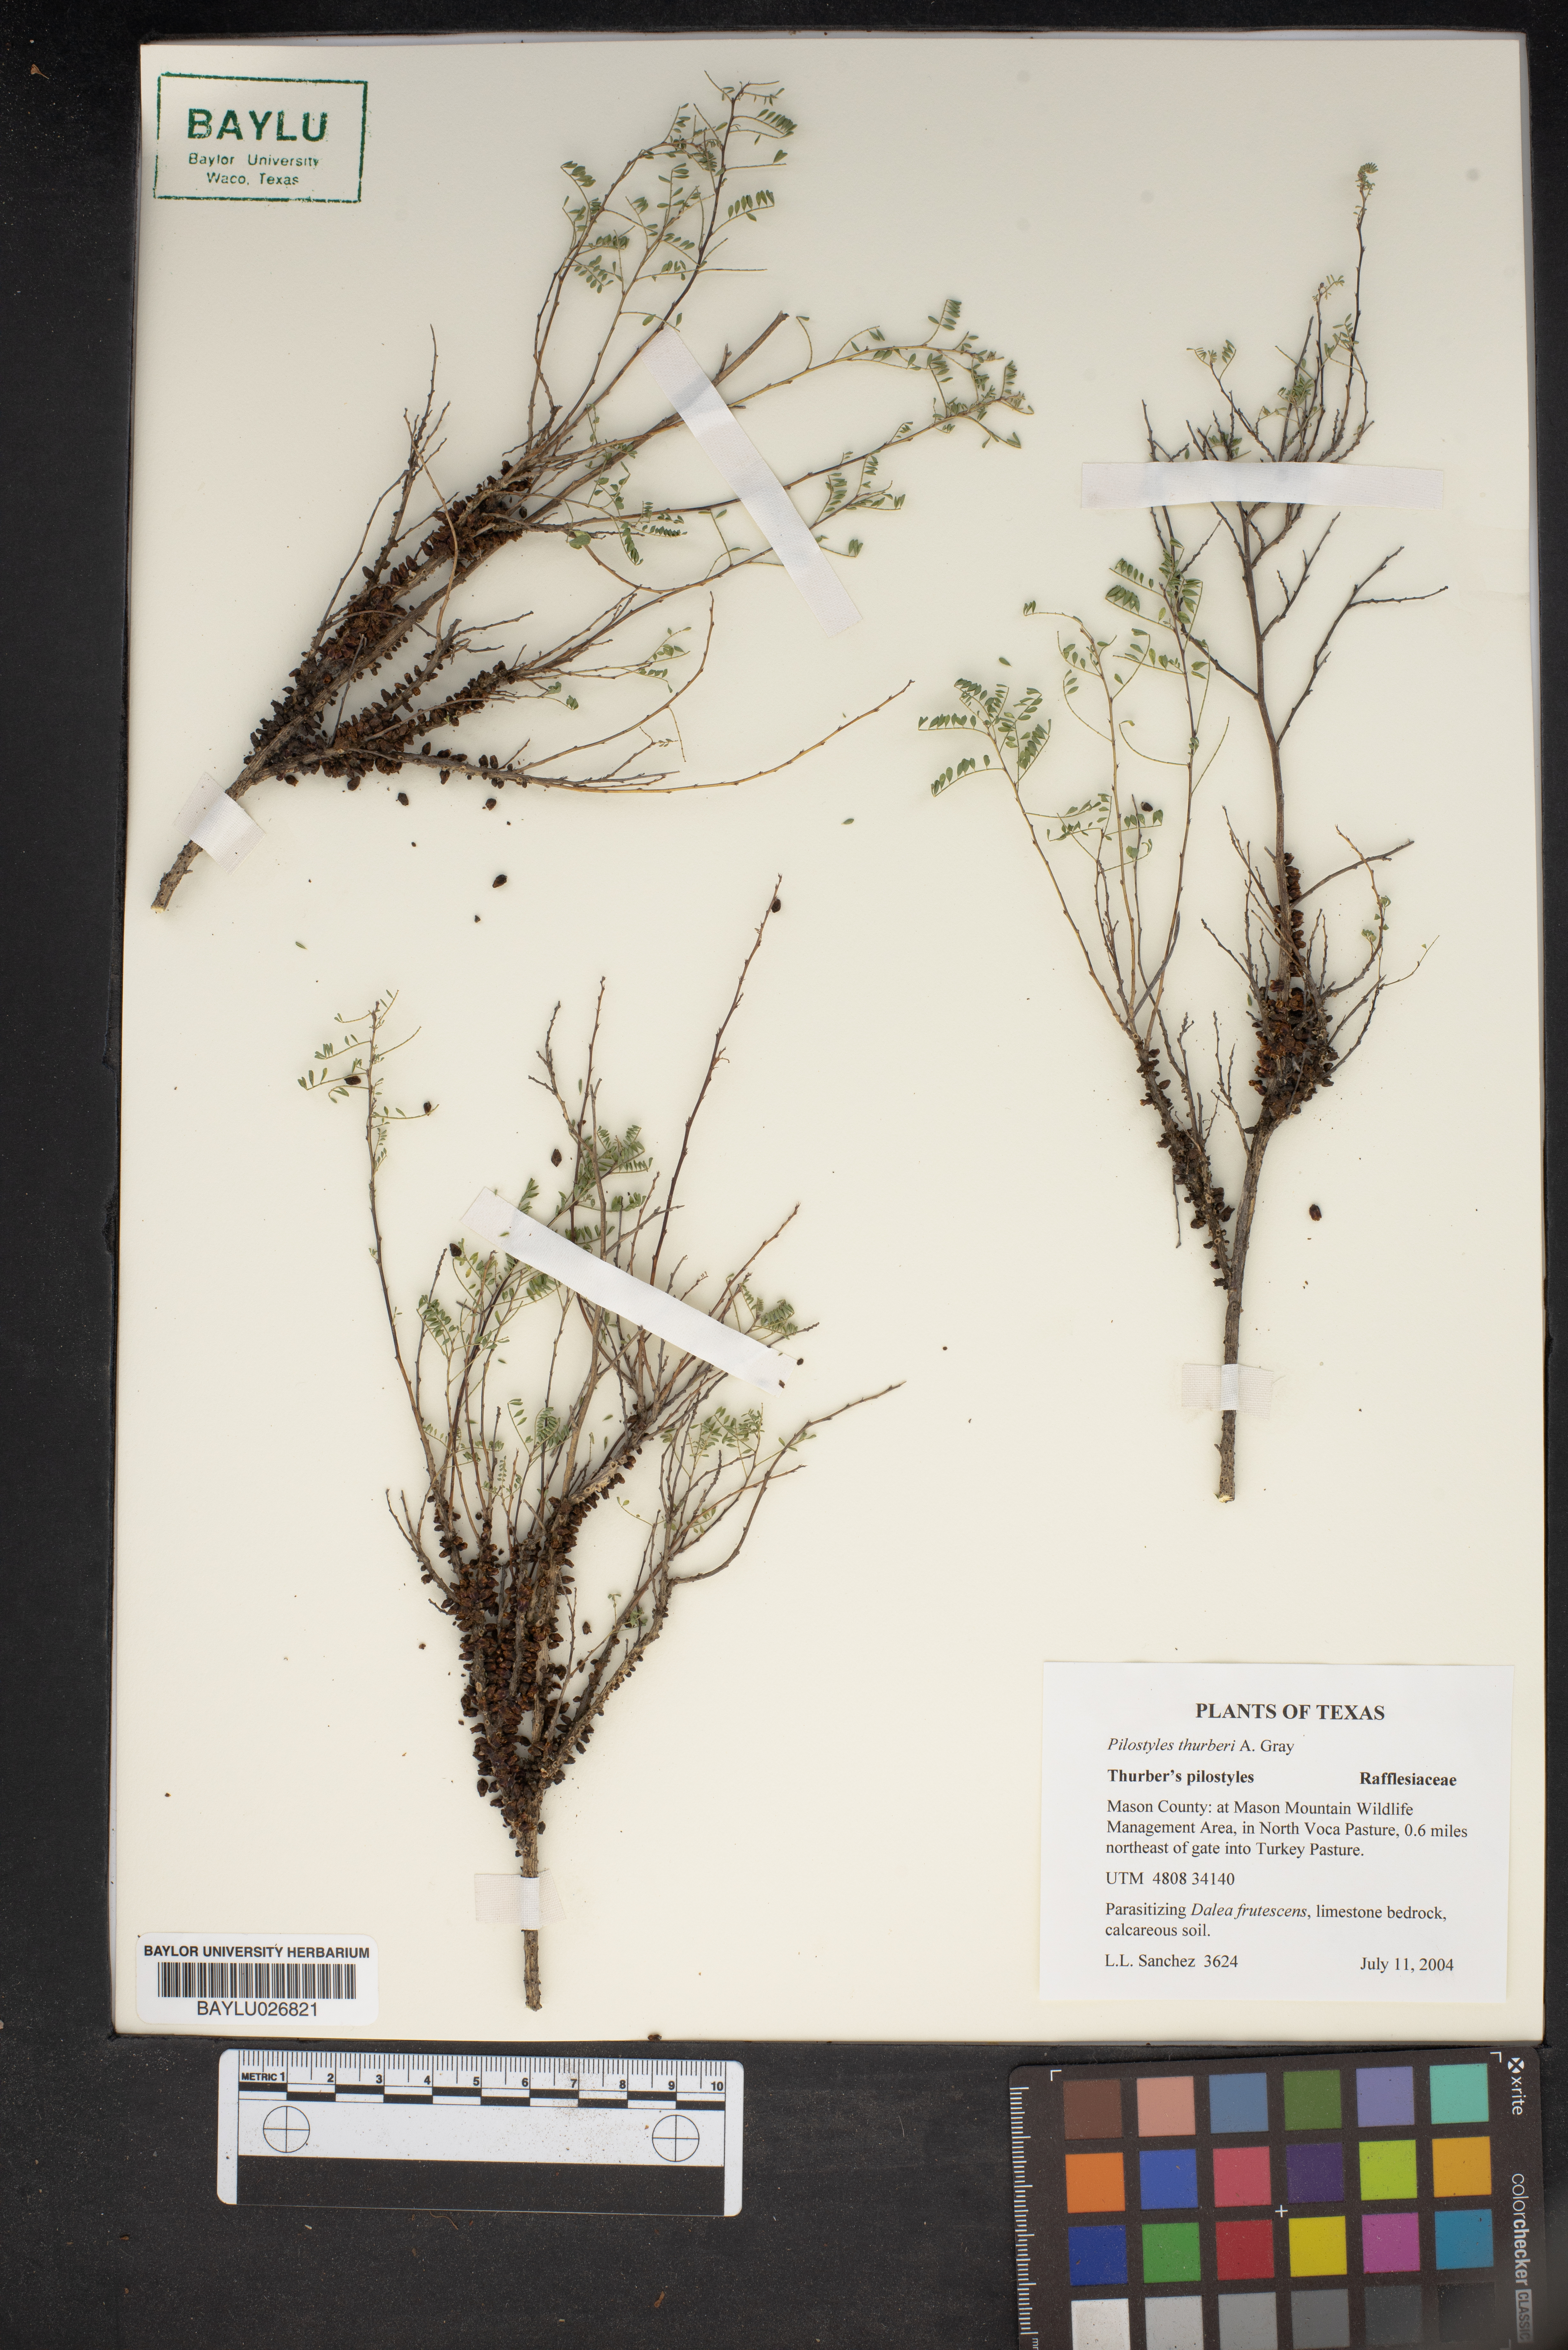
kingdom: Plantae
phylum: Tracheophyta
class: Magnoliopsida
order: Cucurbitales
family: Apodanthaceae
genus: Pilostyles
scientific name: Pilostyles thurberi
